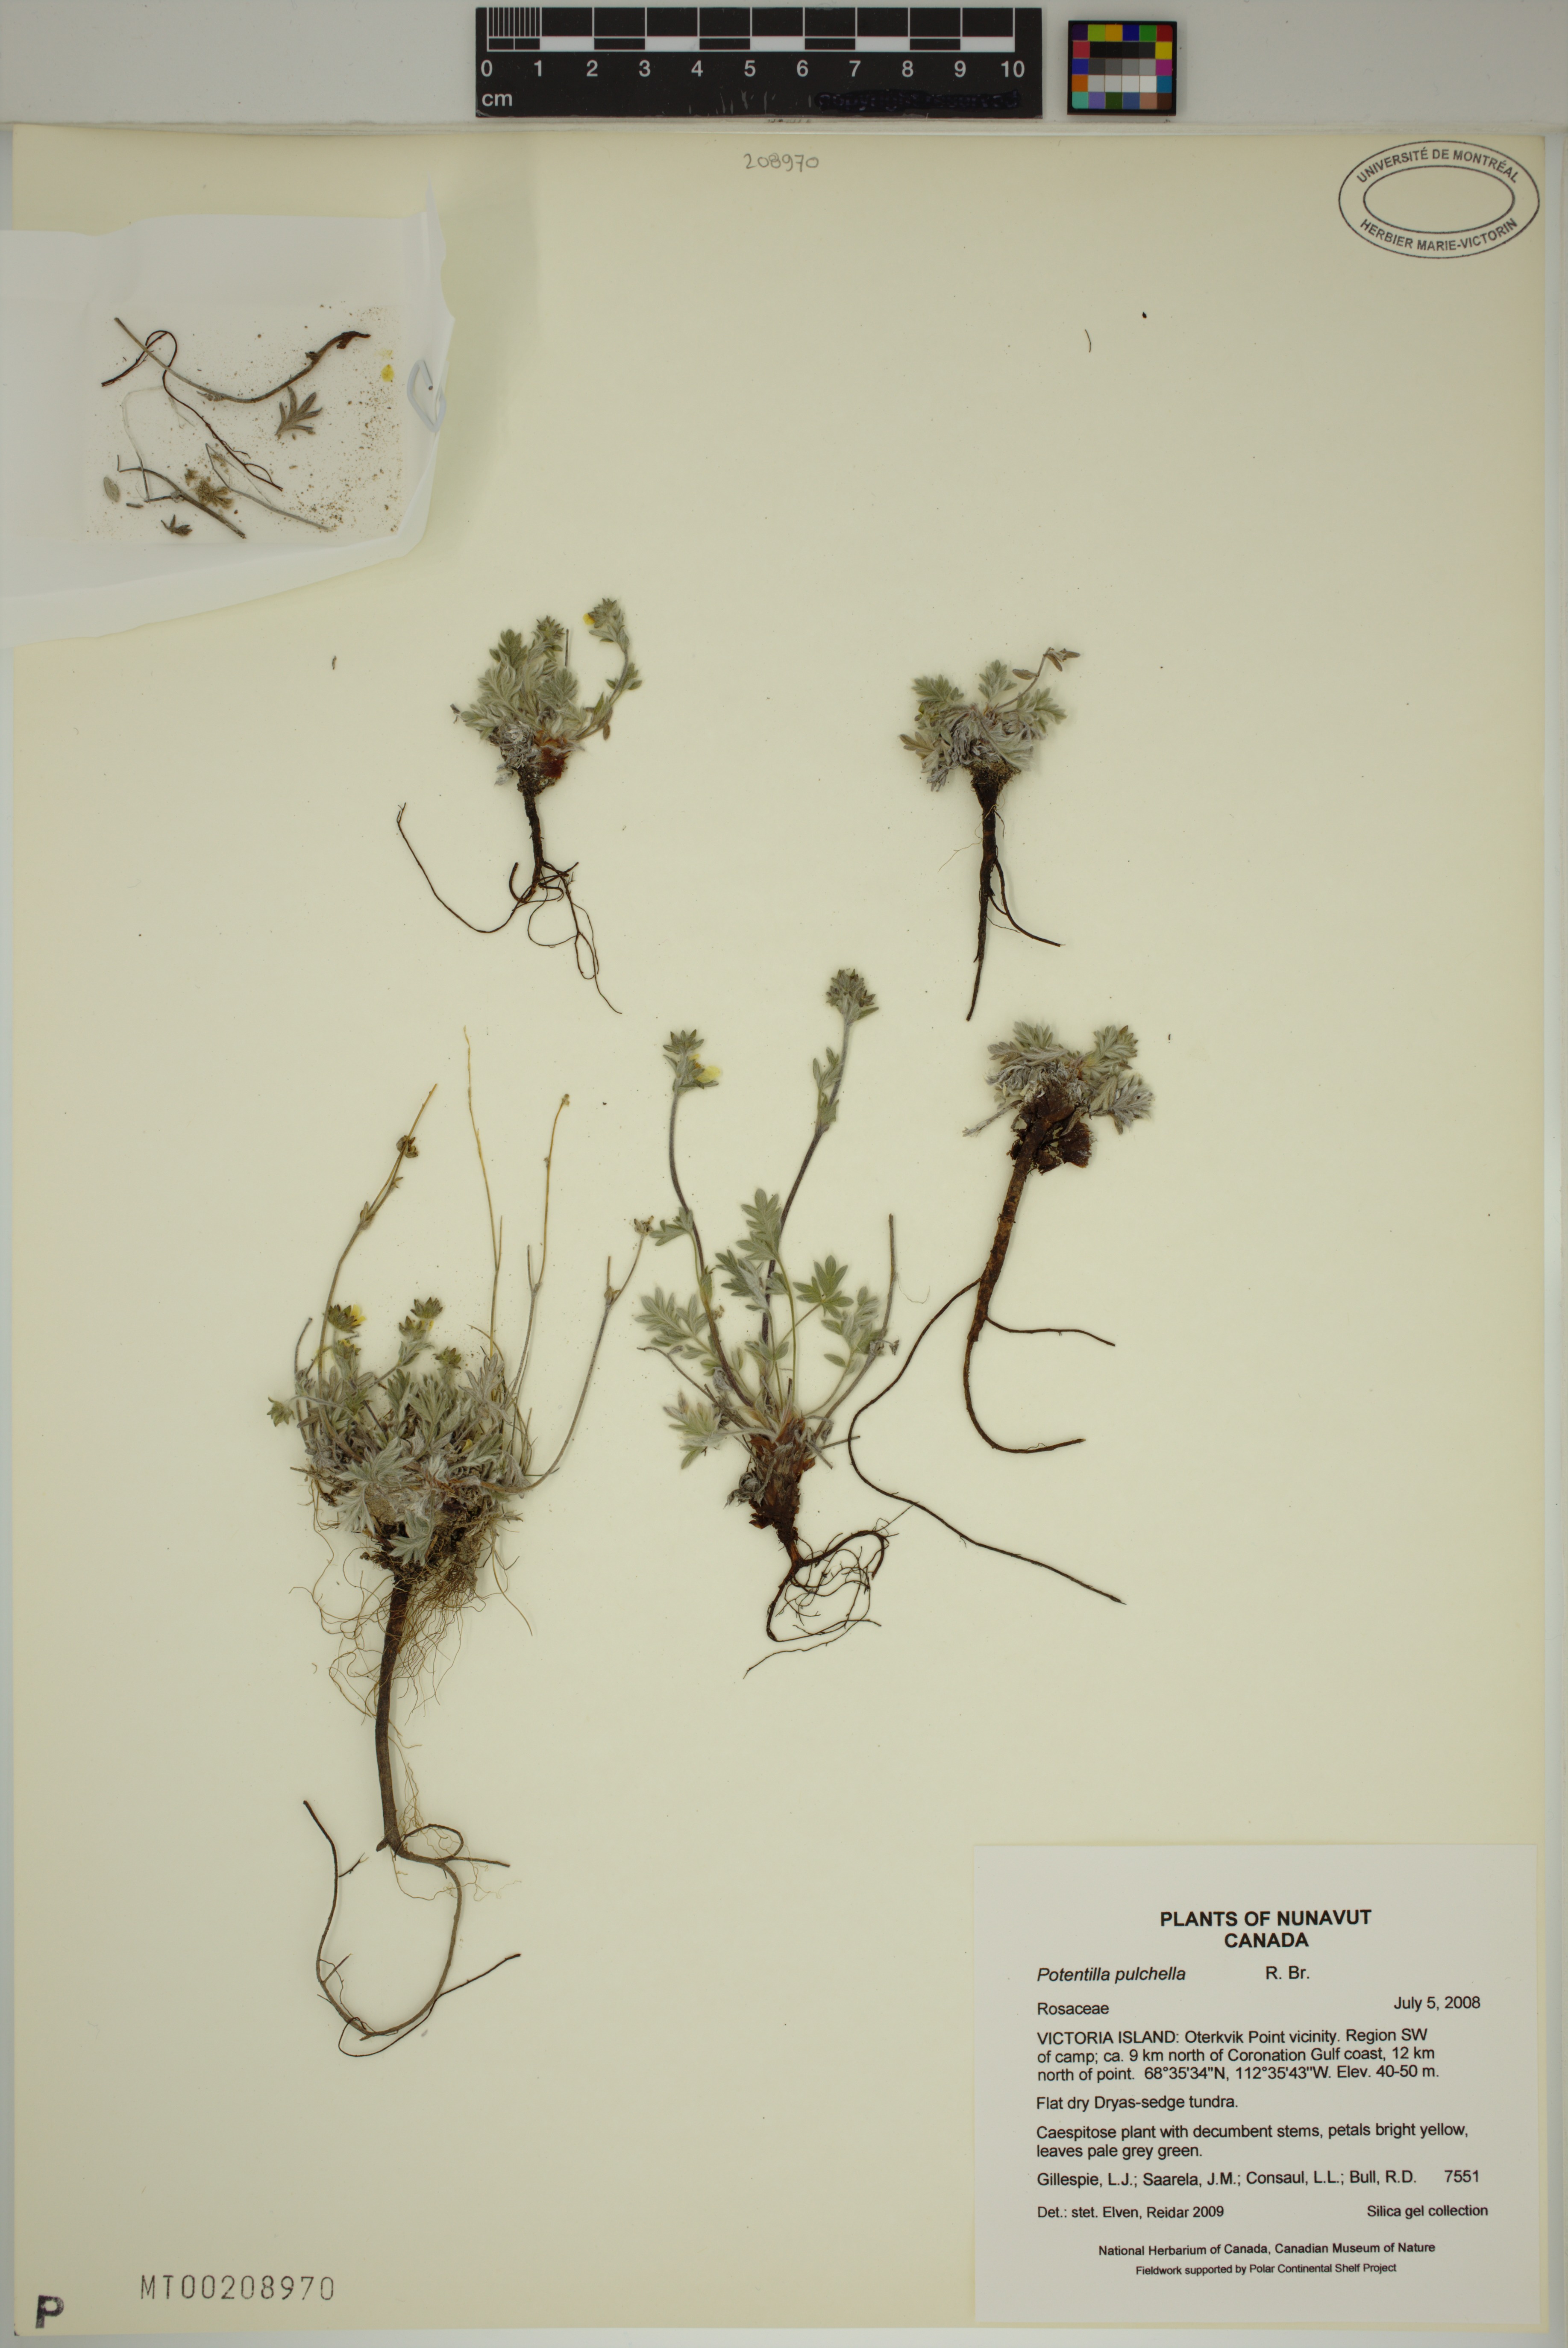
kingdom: Plantae
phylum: Tracheophyta
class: Magnoliopsida
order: Rosales
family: Rosaceae
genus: Potentilla
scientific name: Potentilla pulchella
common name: Pretty cinquefoil
